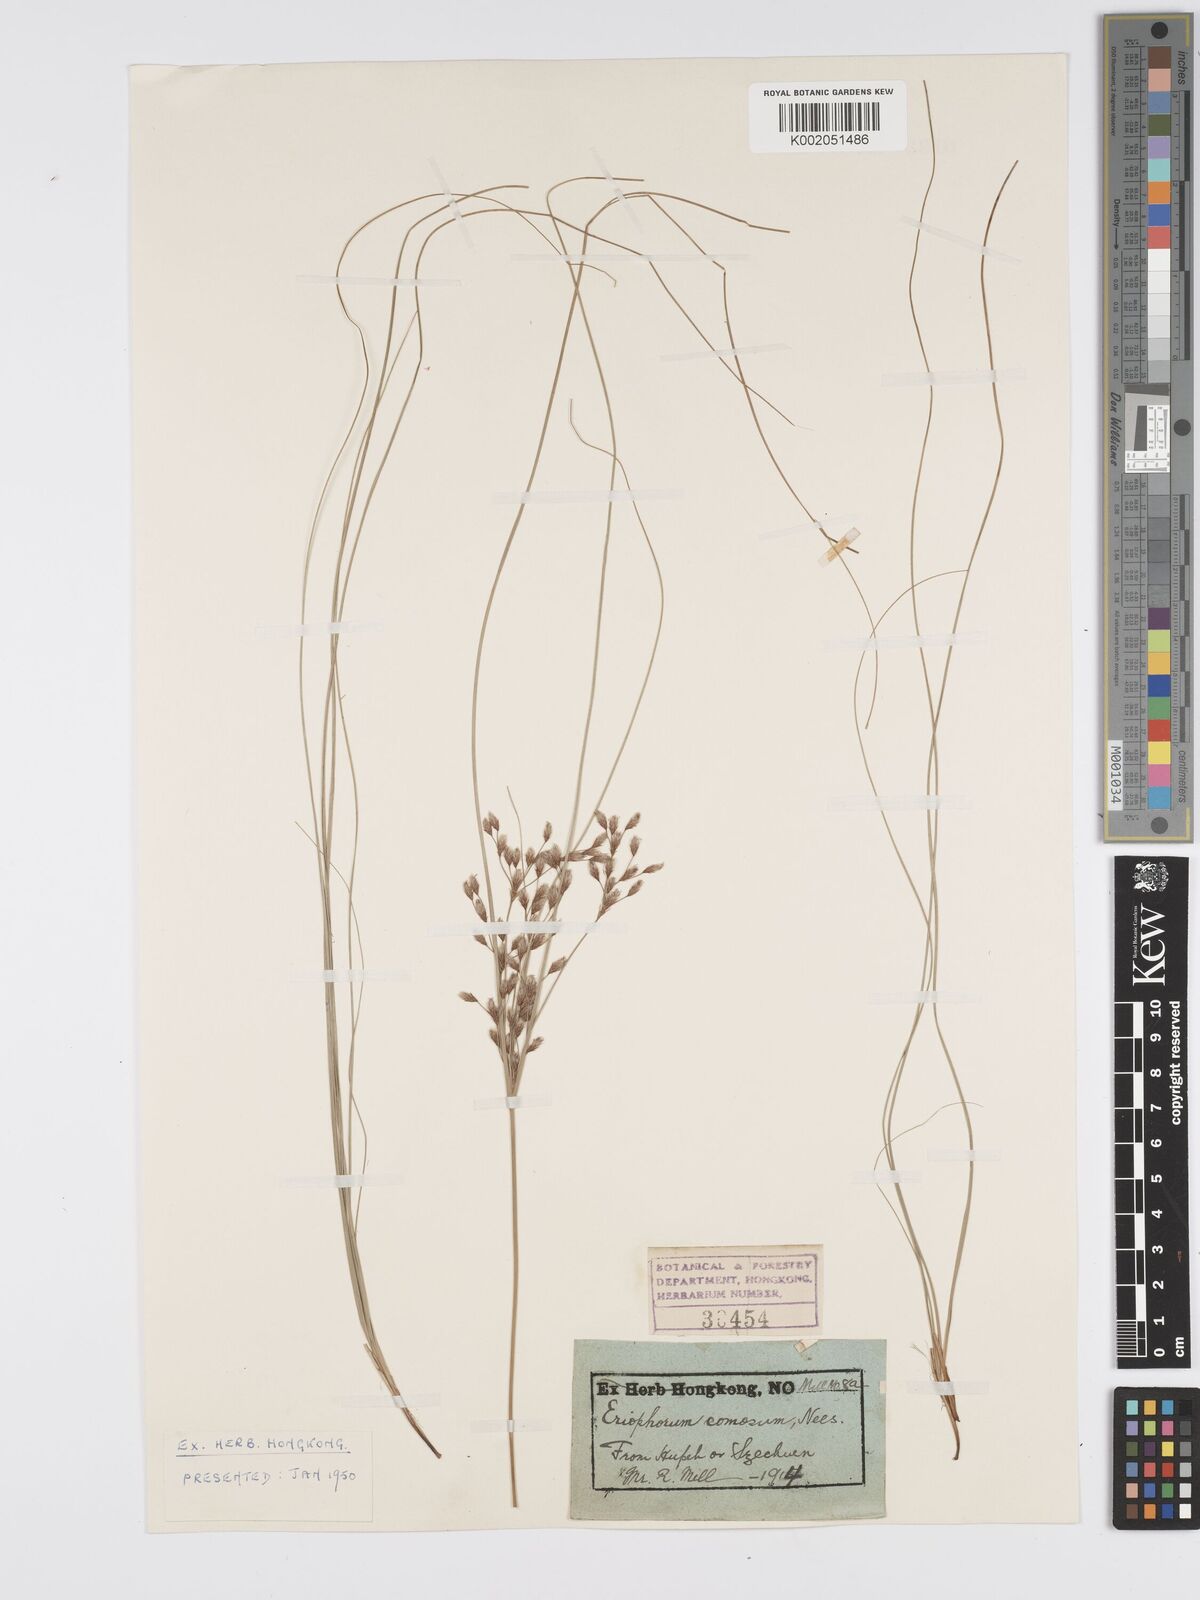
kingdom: Plantae
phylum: Tracheophyta
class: Liliopsida
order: Poales
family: Cyperaceae
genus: Erioscirpus
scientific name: Erioscirpus comosus
